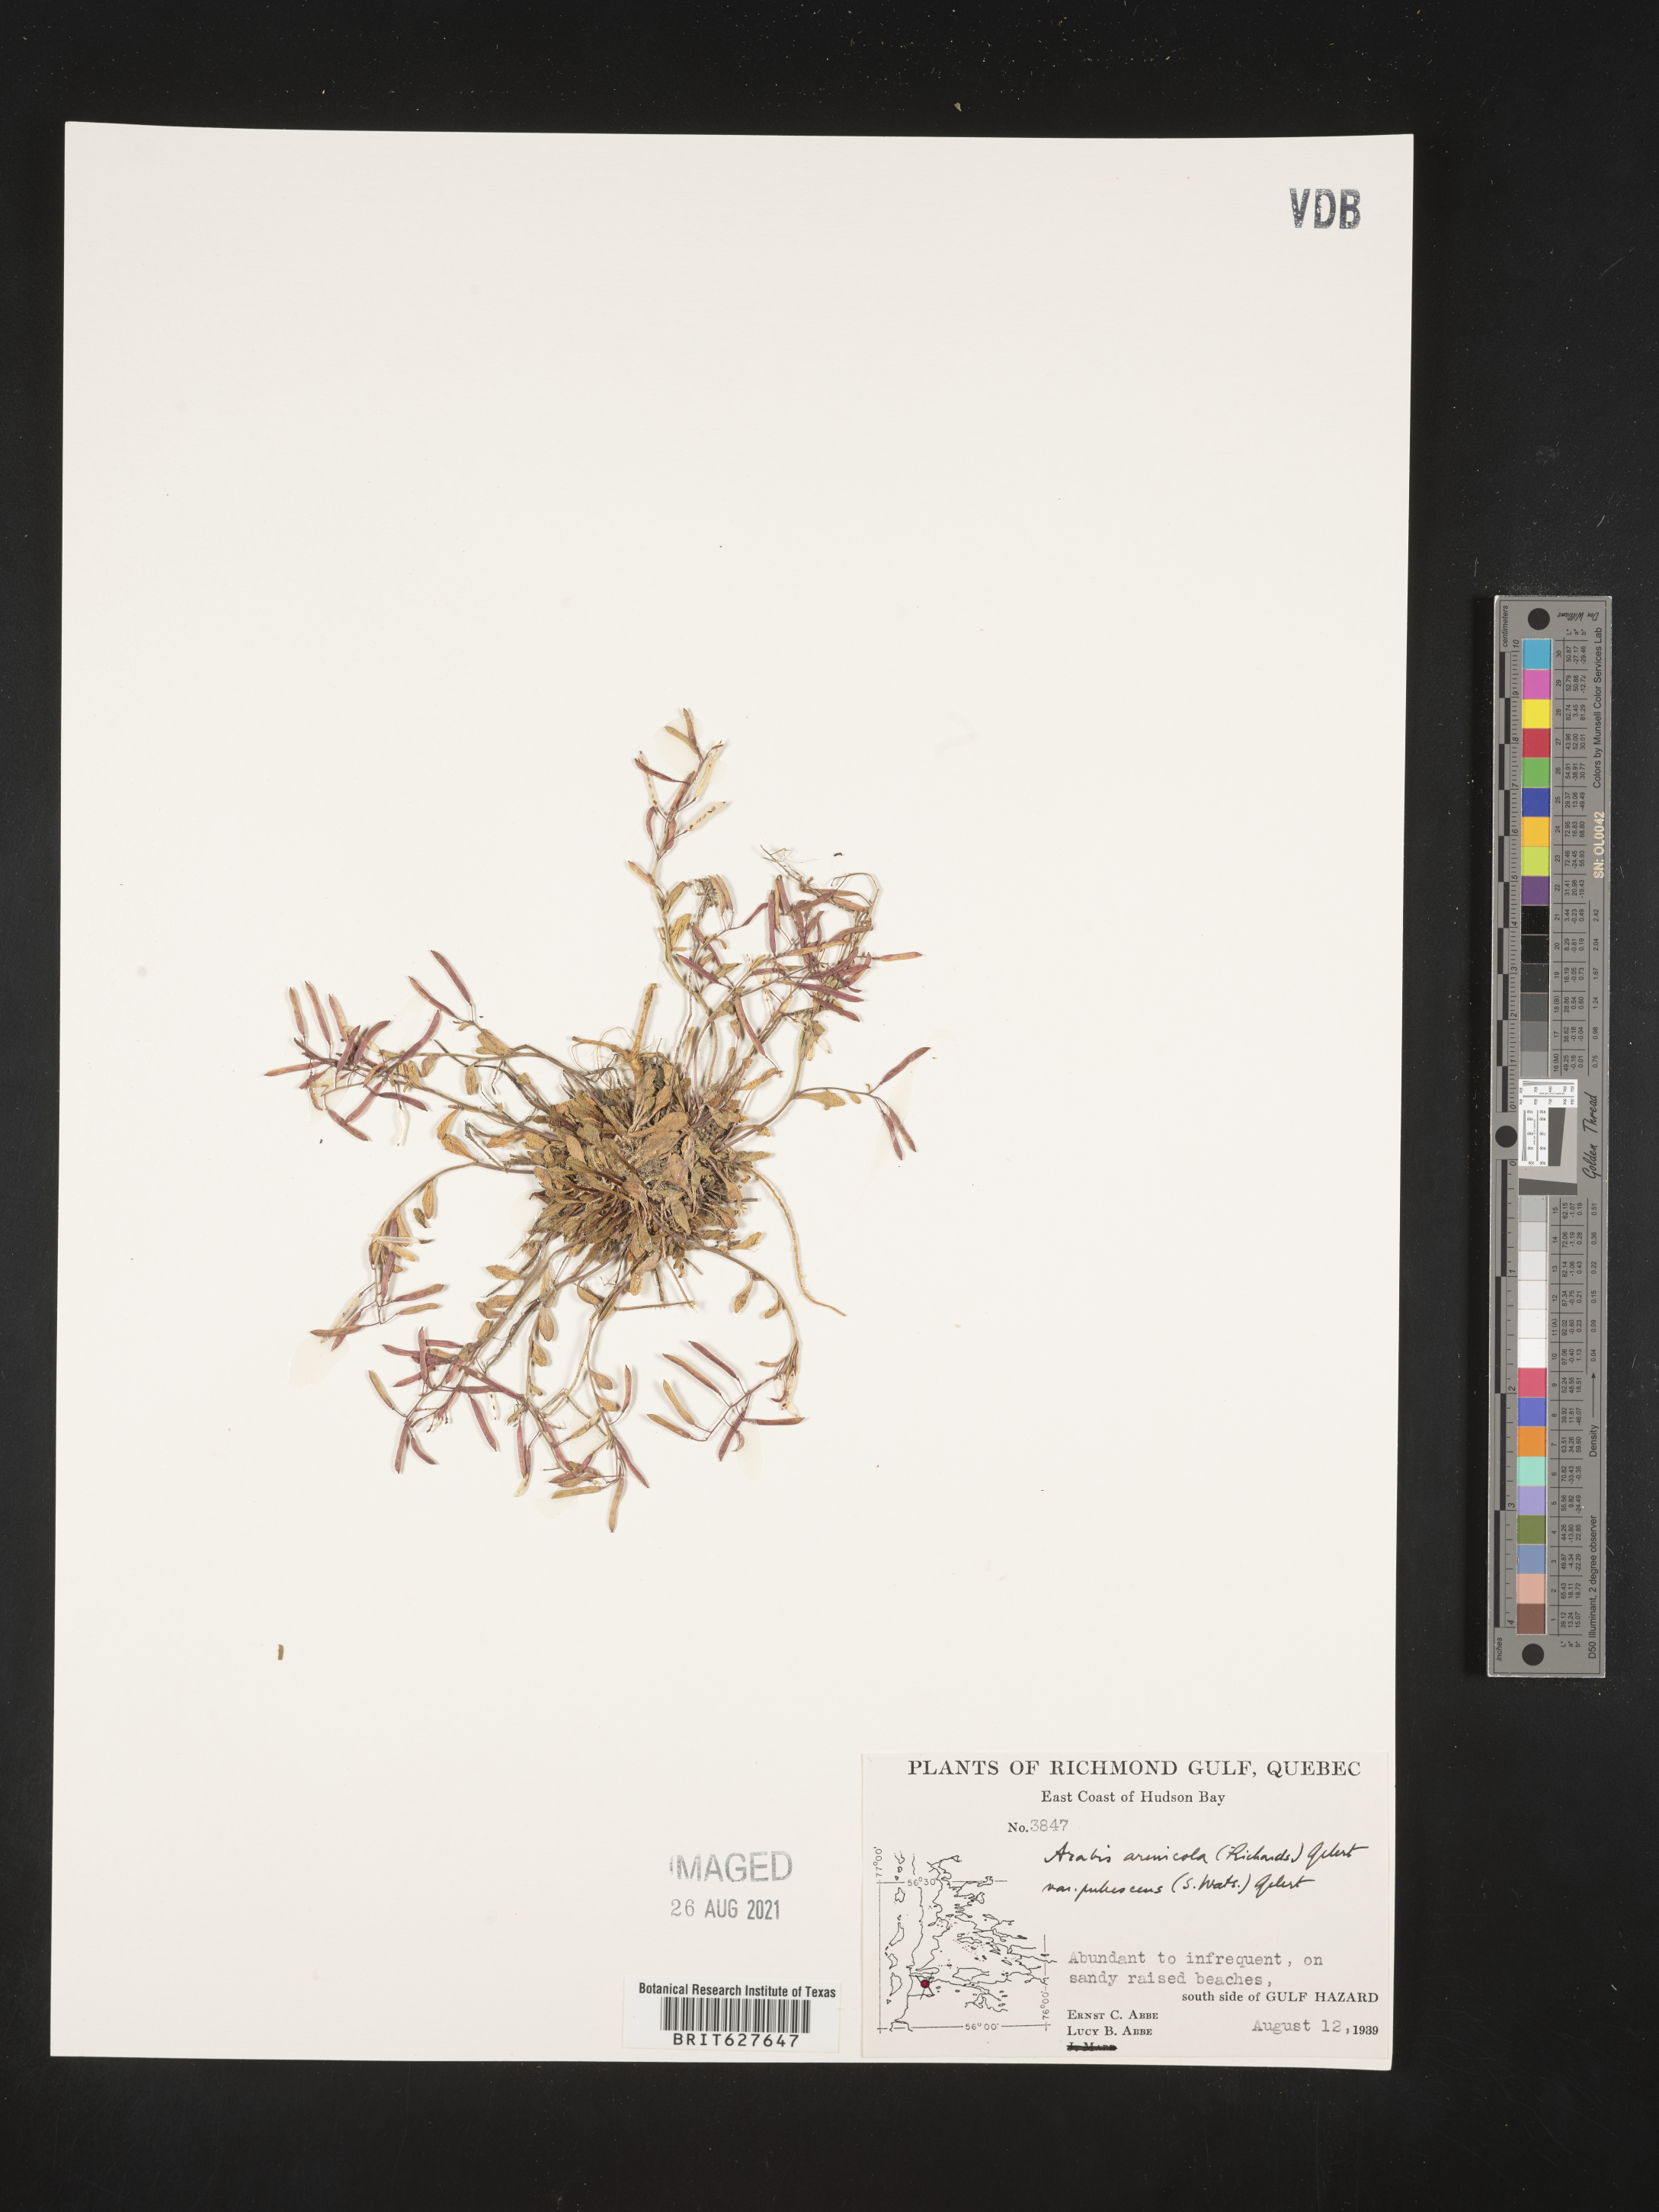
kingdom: Plantae
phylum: Tracheophyta
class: Magnoliopsida
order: Brassicales
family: Brassicaceae
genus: Arabidopsis
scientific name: Arabidopsis lyrata
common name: Lyrate rockcress
